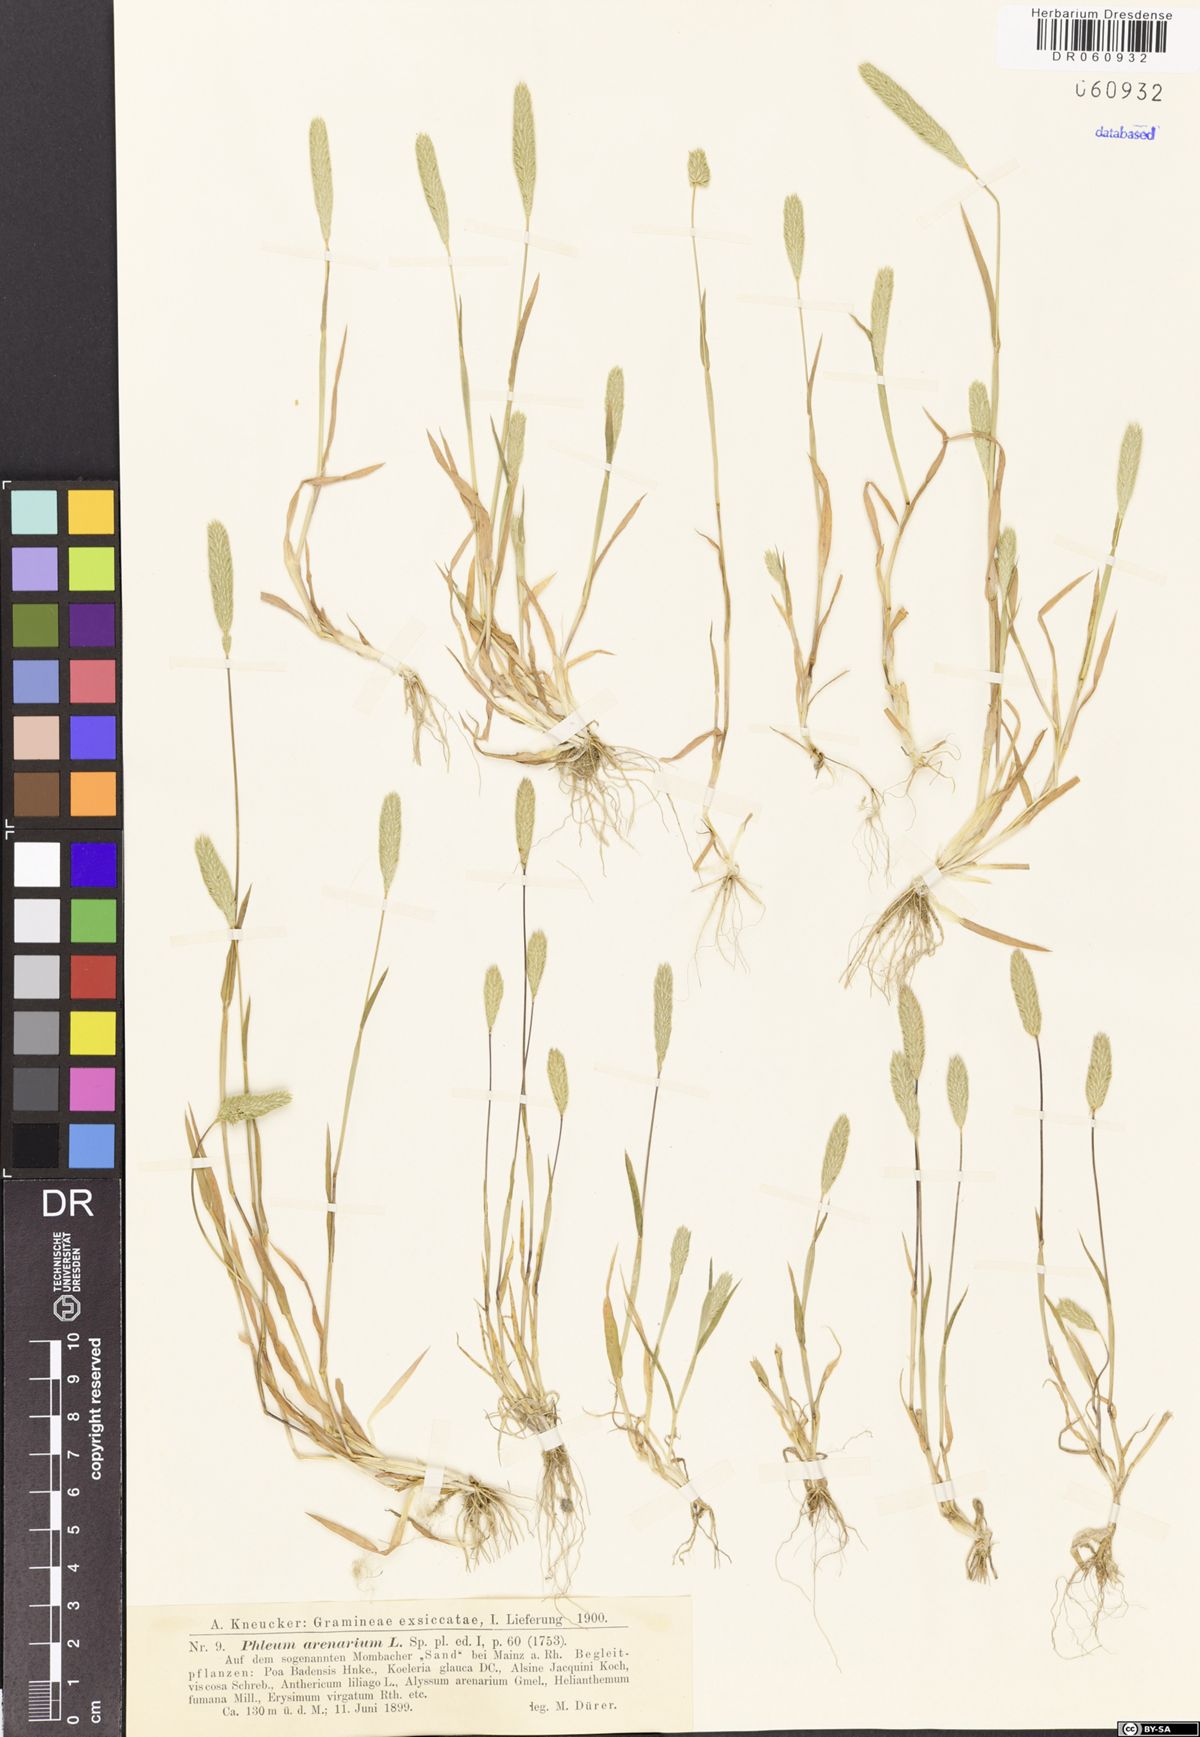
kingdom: Plantae
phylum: Tracheophyta
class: Liliopsida
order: Poales
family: Poaceae
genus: Phleum
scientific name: Phleum arenarium
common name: Sand cat's-tail
